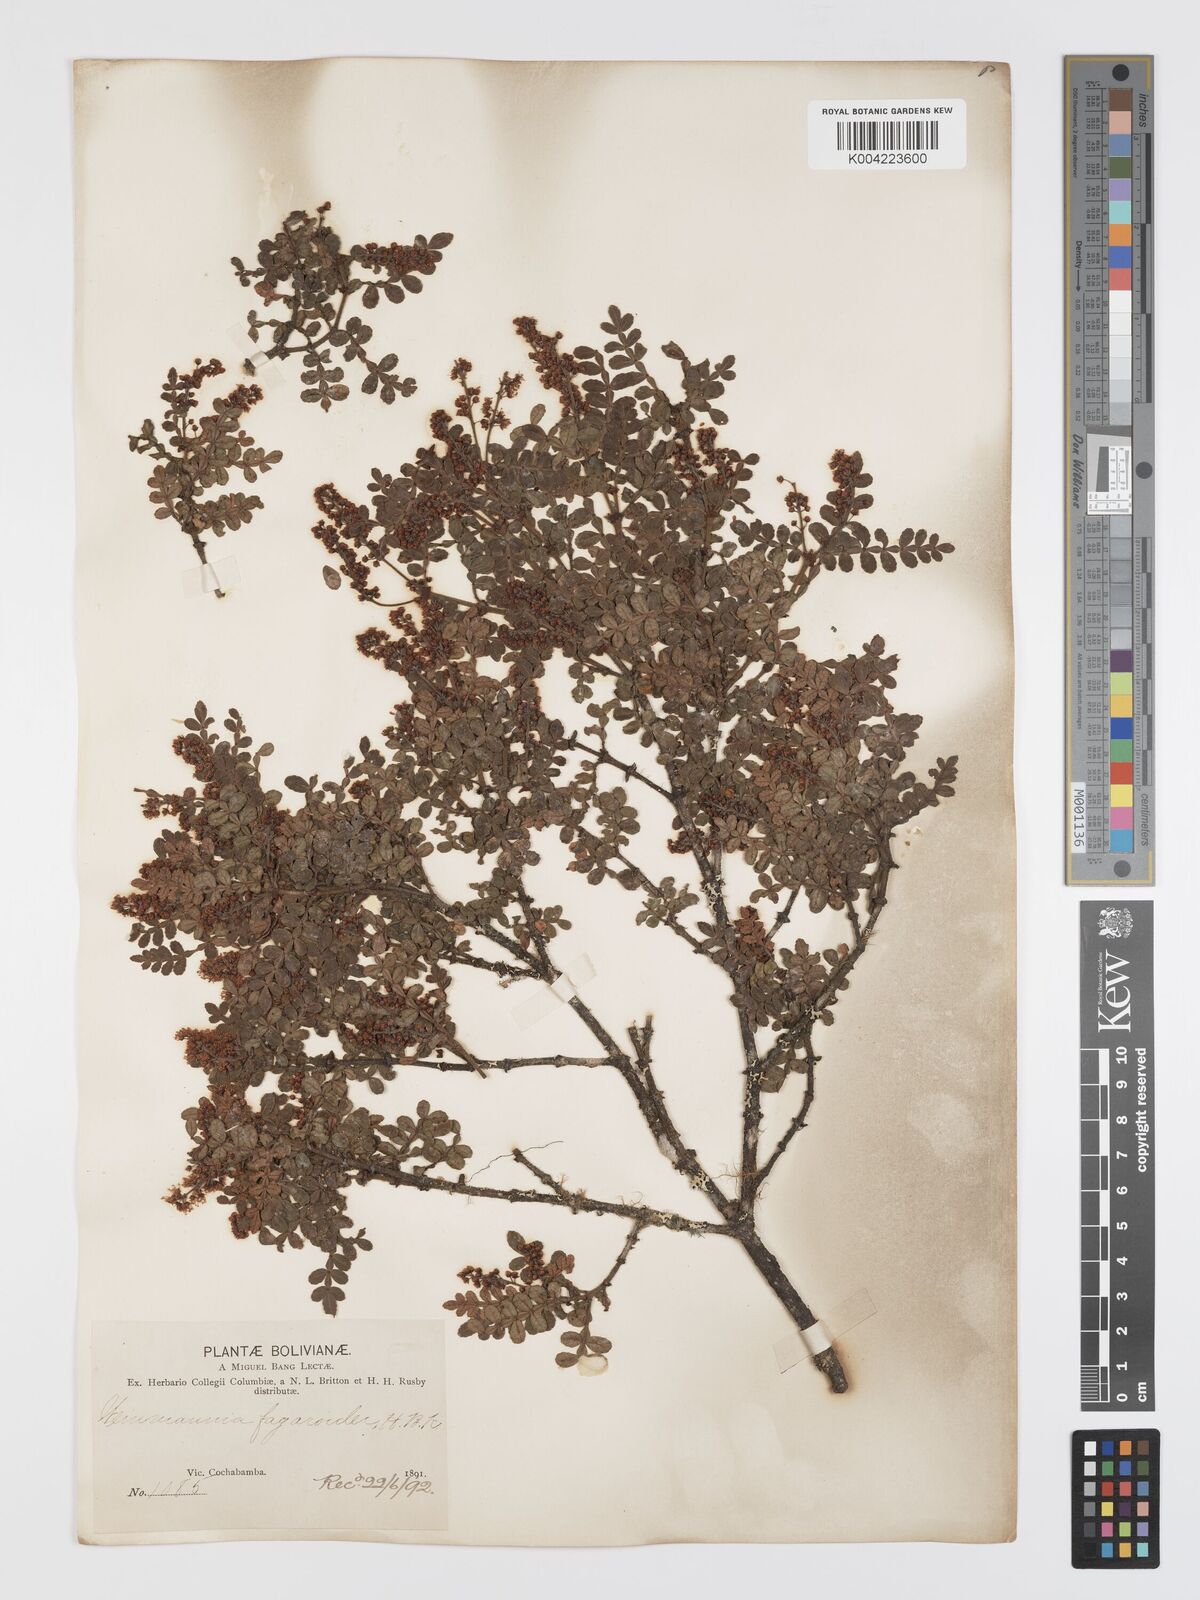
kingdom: Plantae
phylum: Tracheophyta
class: Magnoliopsida
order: Oxalidales
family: Cunoniaceae
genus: Weinmannia
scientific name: Weinmannia fagaroides
